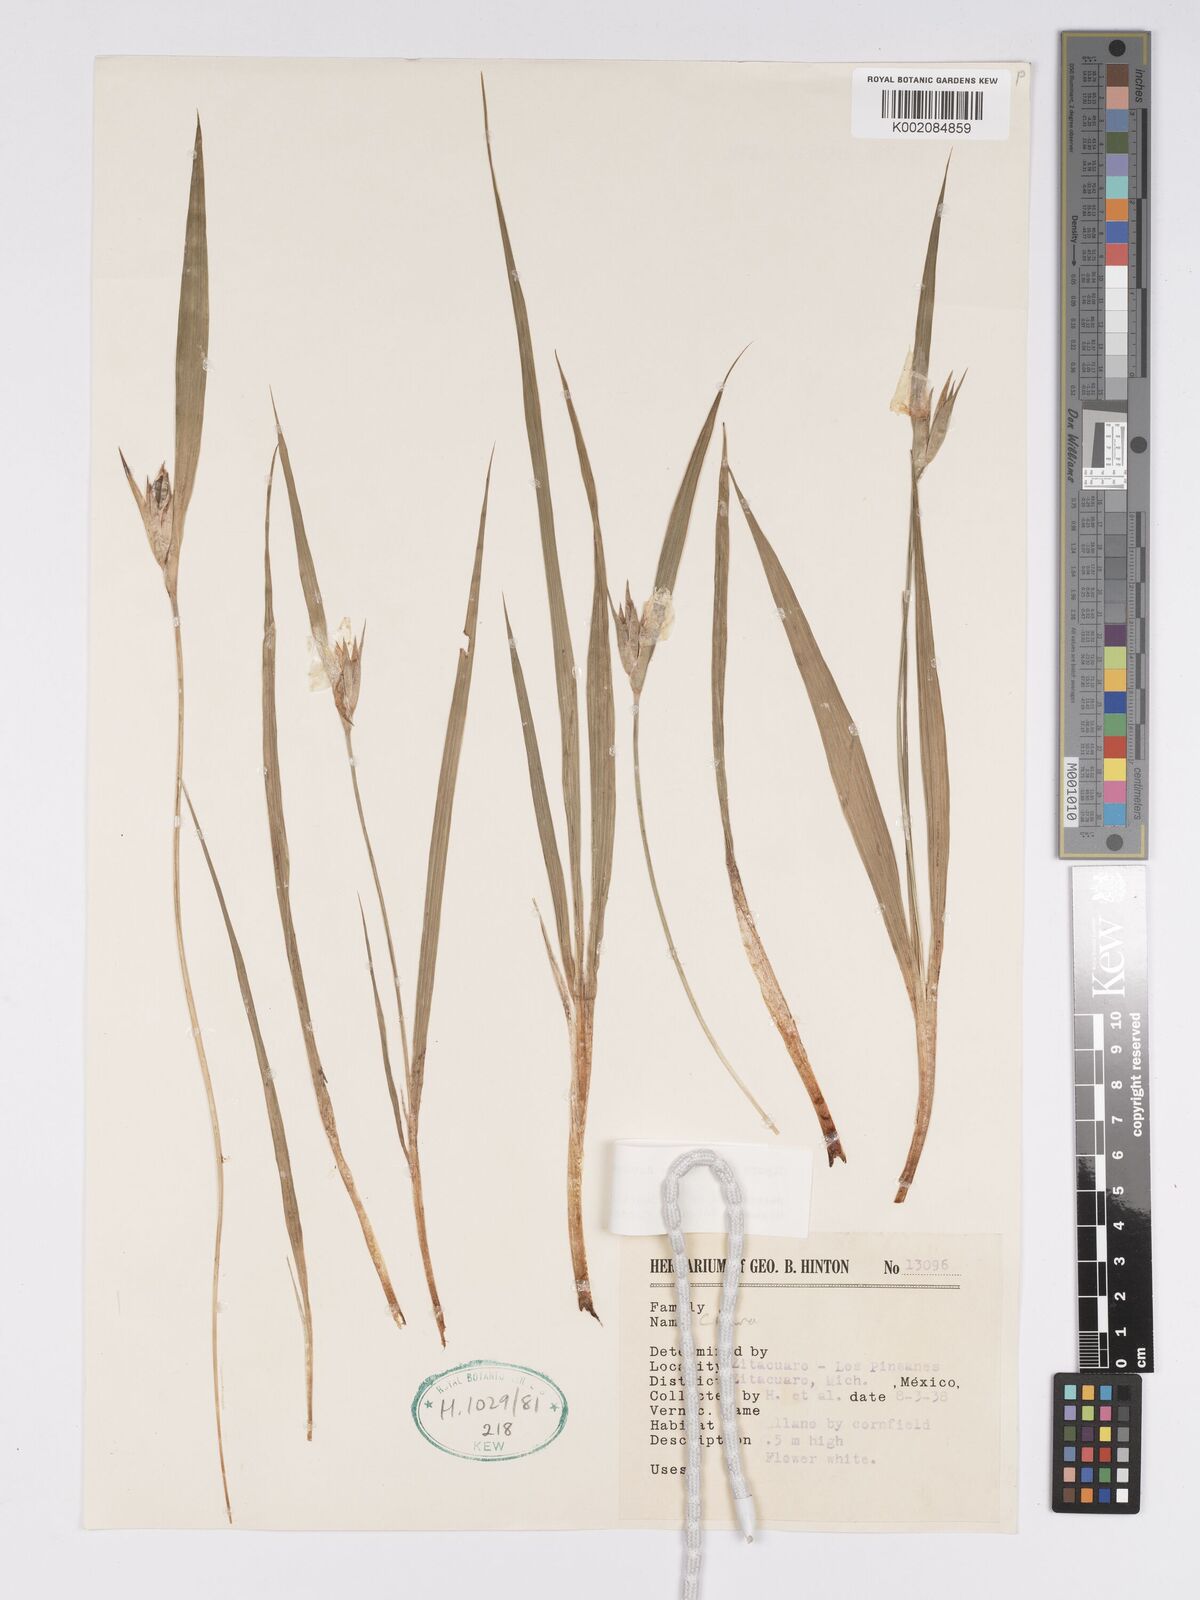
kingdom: Plantae
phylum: Tracheophyta
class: Liliopsida
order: Asparagales
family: Iridaceae
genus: Cipura
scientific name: Cipura campanulata
